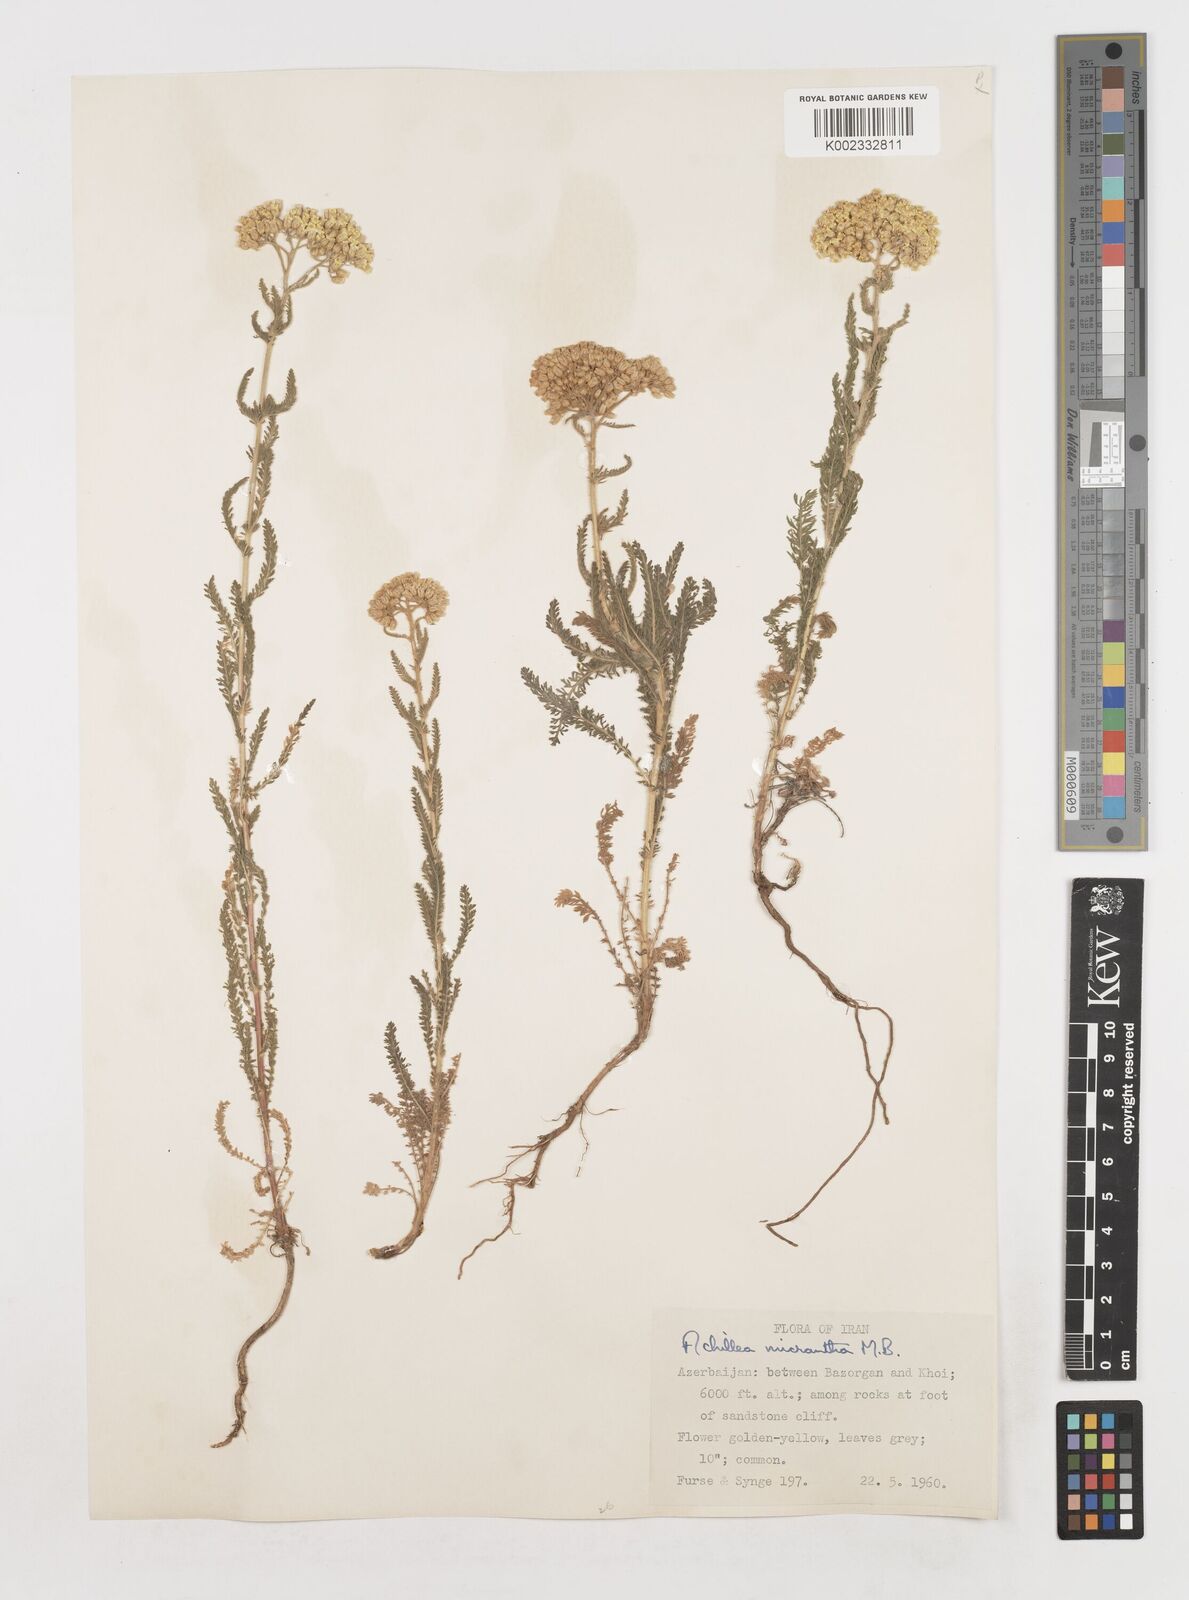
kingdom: Plantae
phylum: Tracheophyta
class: Magnoliopsida
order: Asterales
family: Asteraceae
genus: Achillea
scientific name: Achillea arabica
